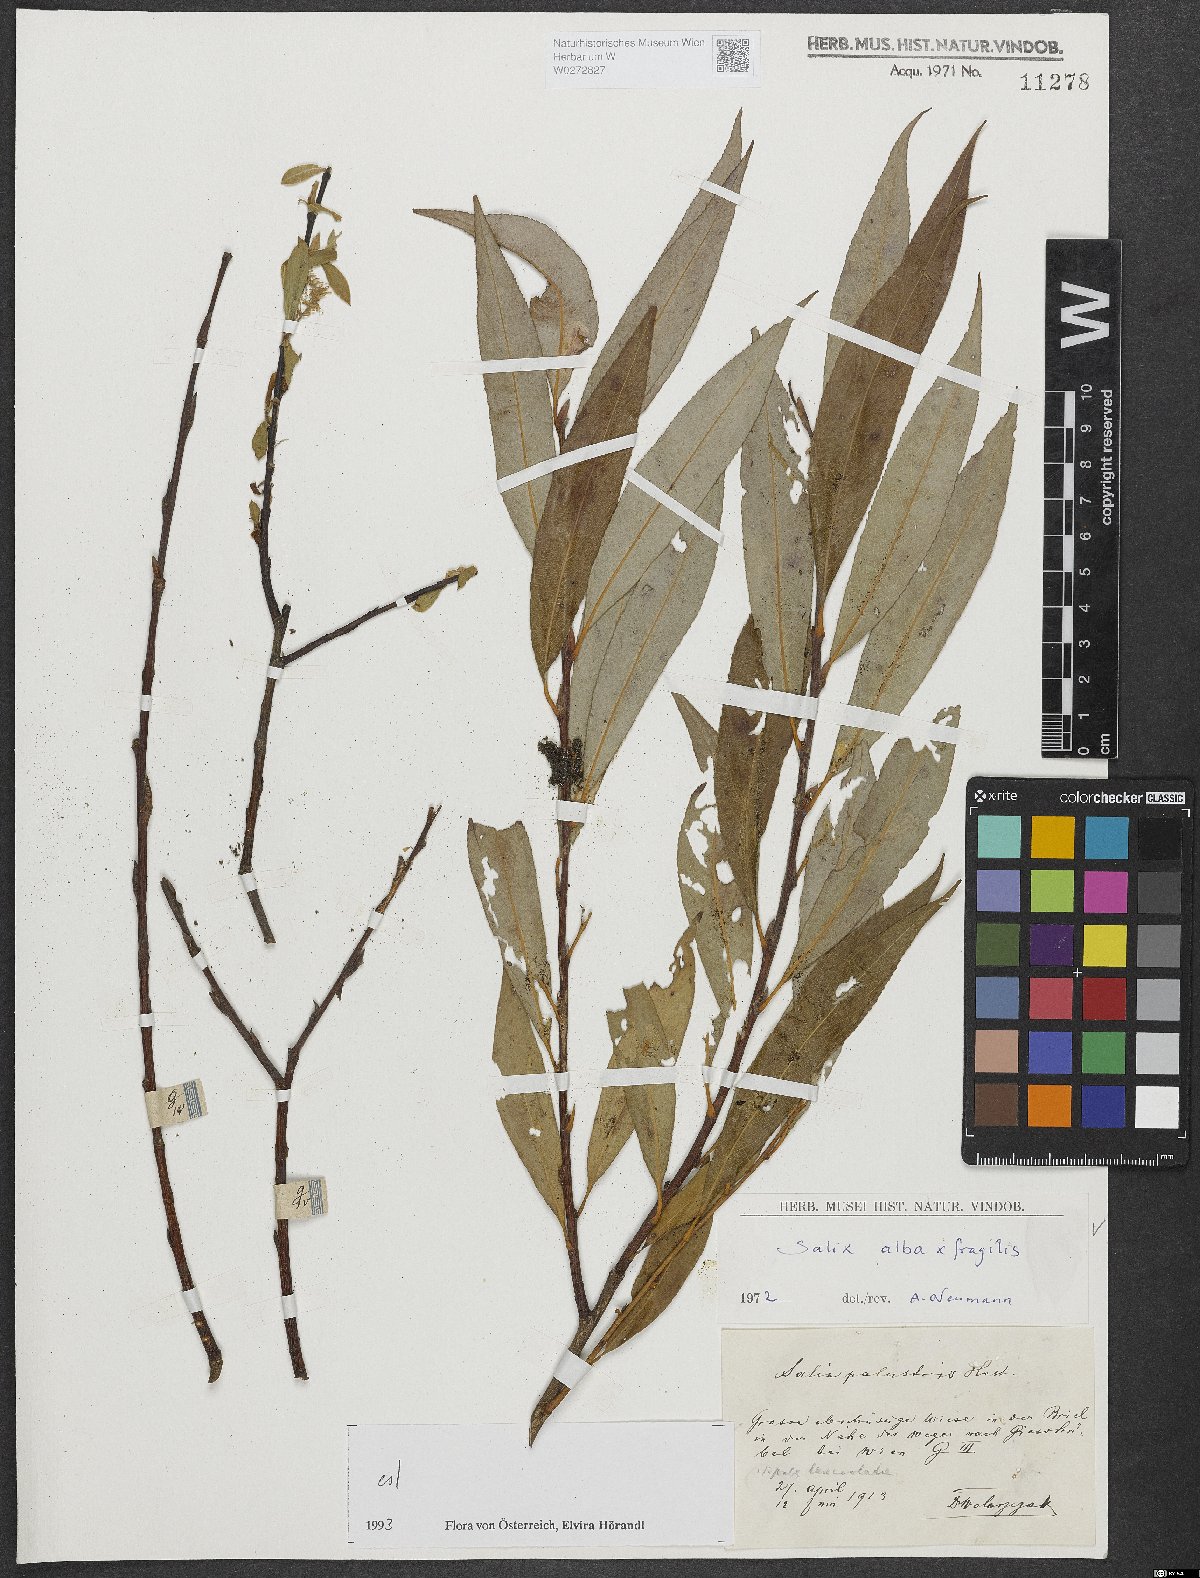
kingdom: Plantae
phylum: Tracheophyta
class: Magnoliopsida
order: Malpighiales
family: Salicaceae
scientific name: Salicaceae
